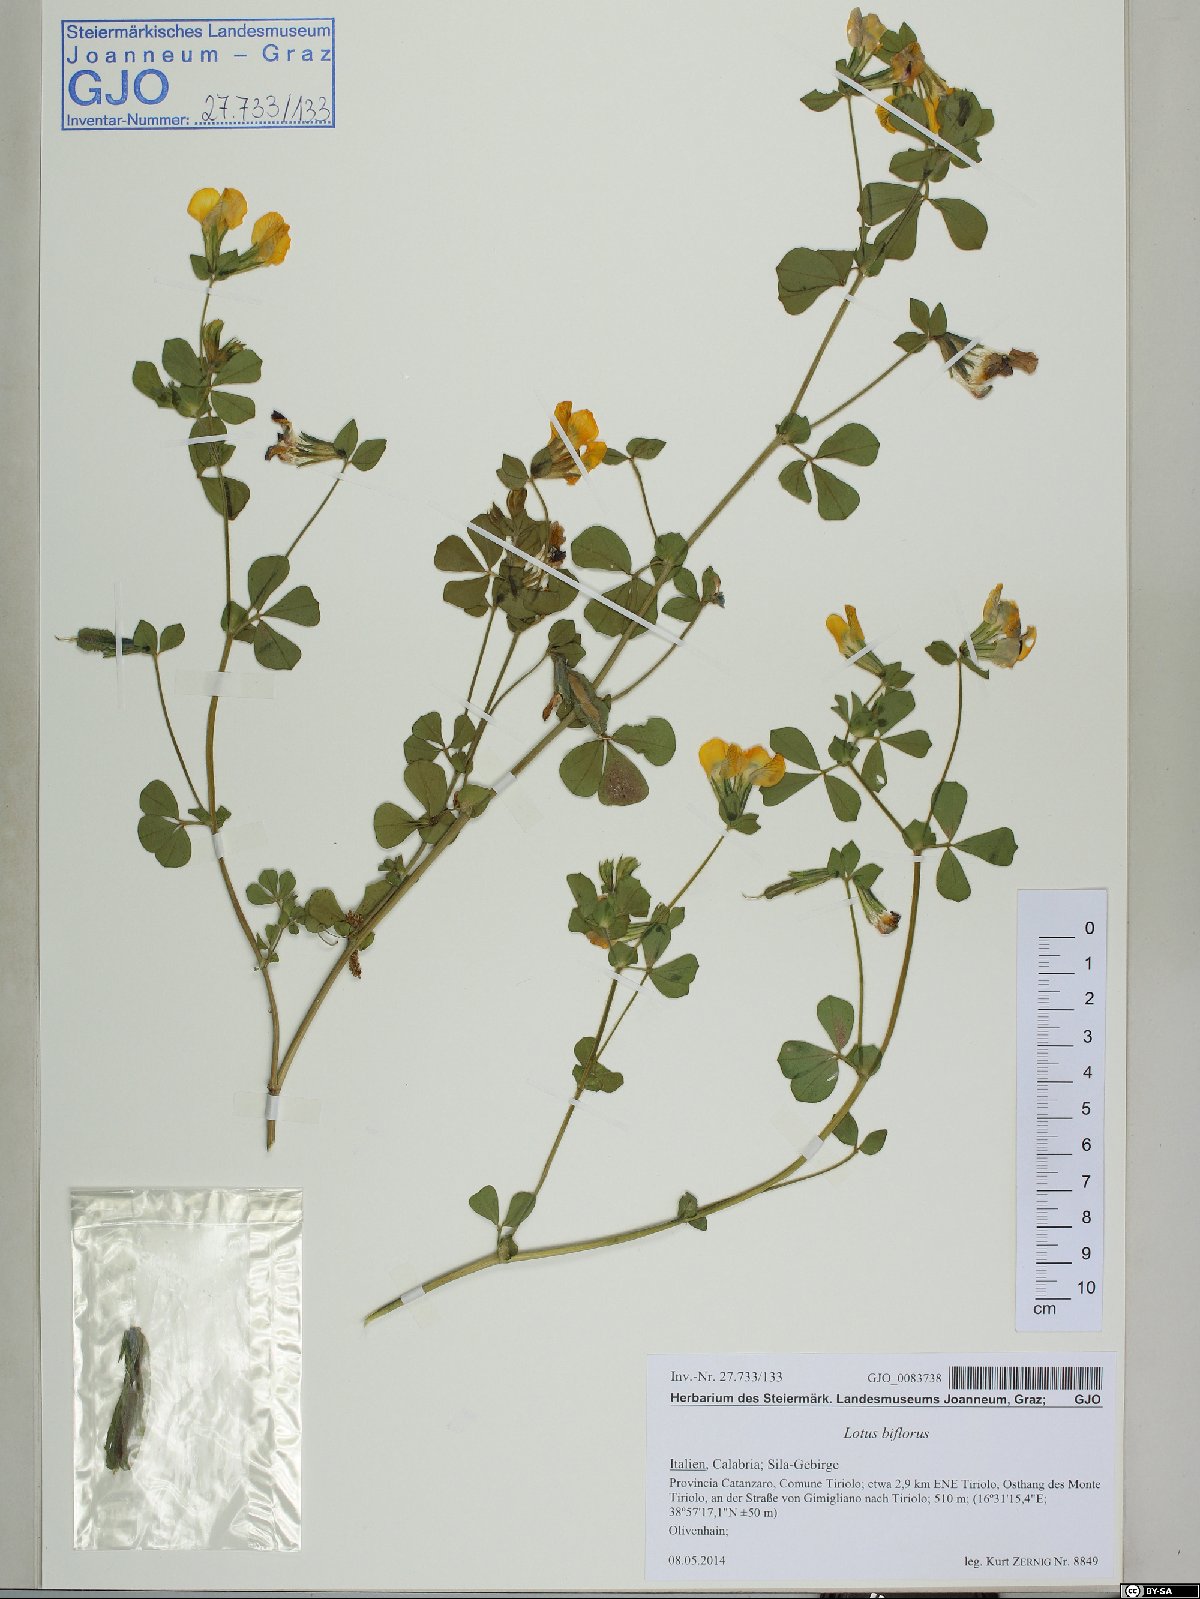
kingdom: Plantae
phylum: Tracheophyta
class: Magnoliopsida
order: Fabales
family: Fabaceae
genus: Lotus
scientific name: Lotus biflorus
